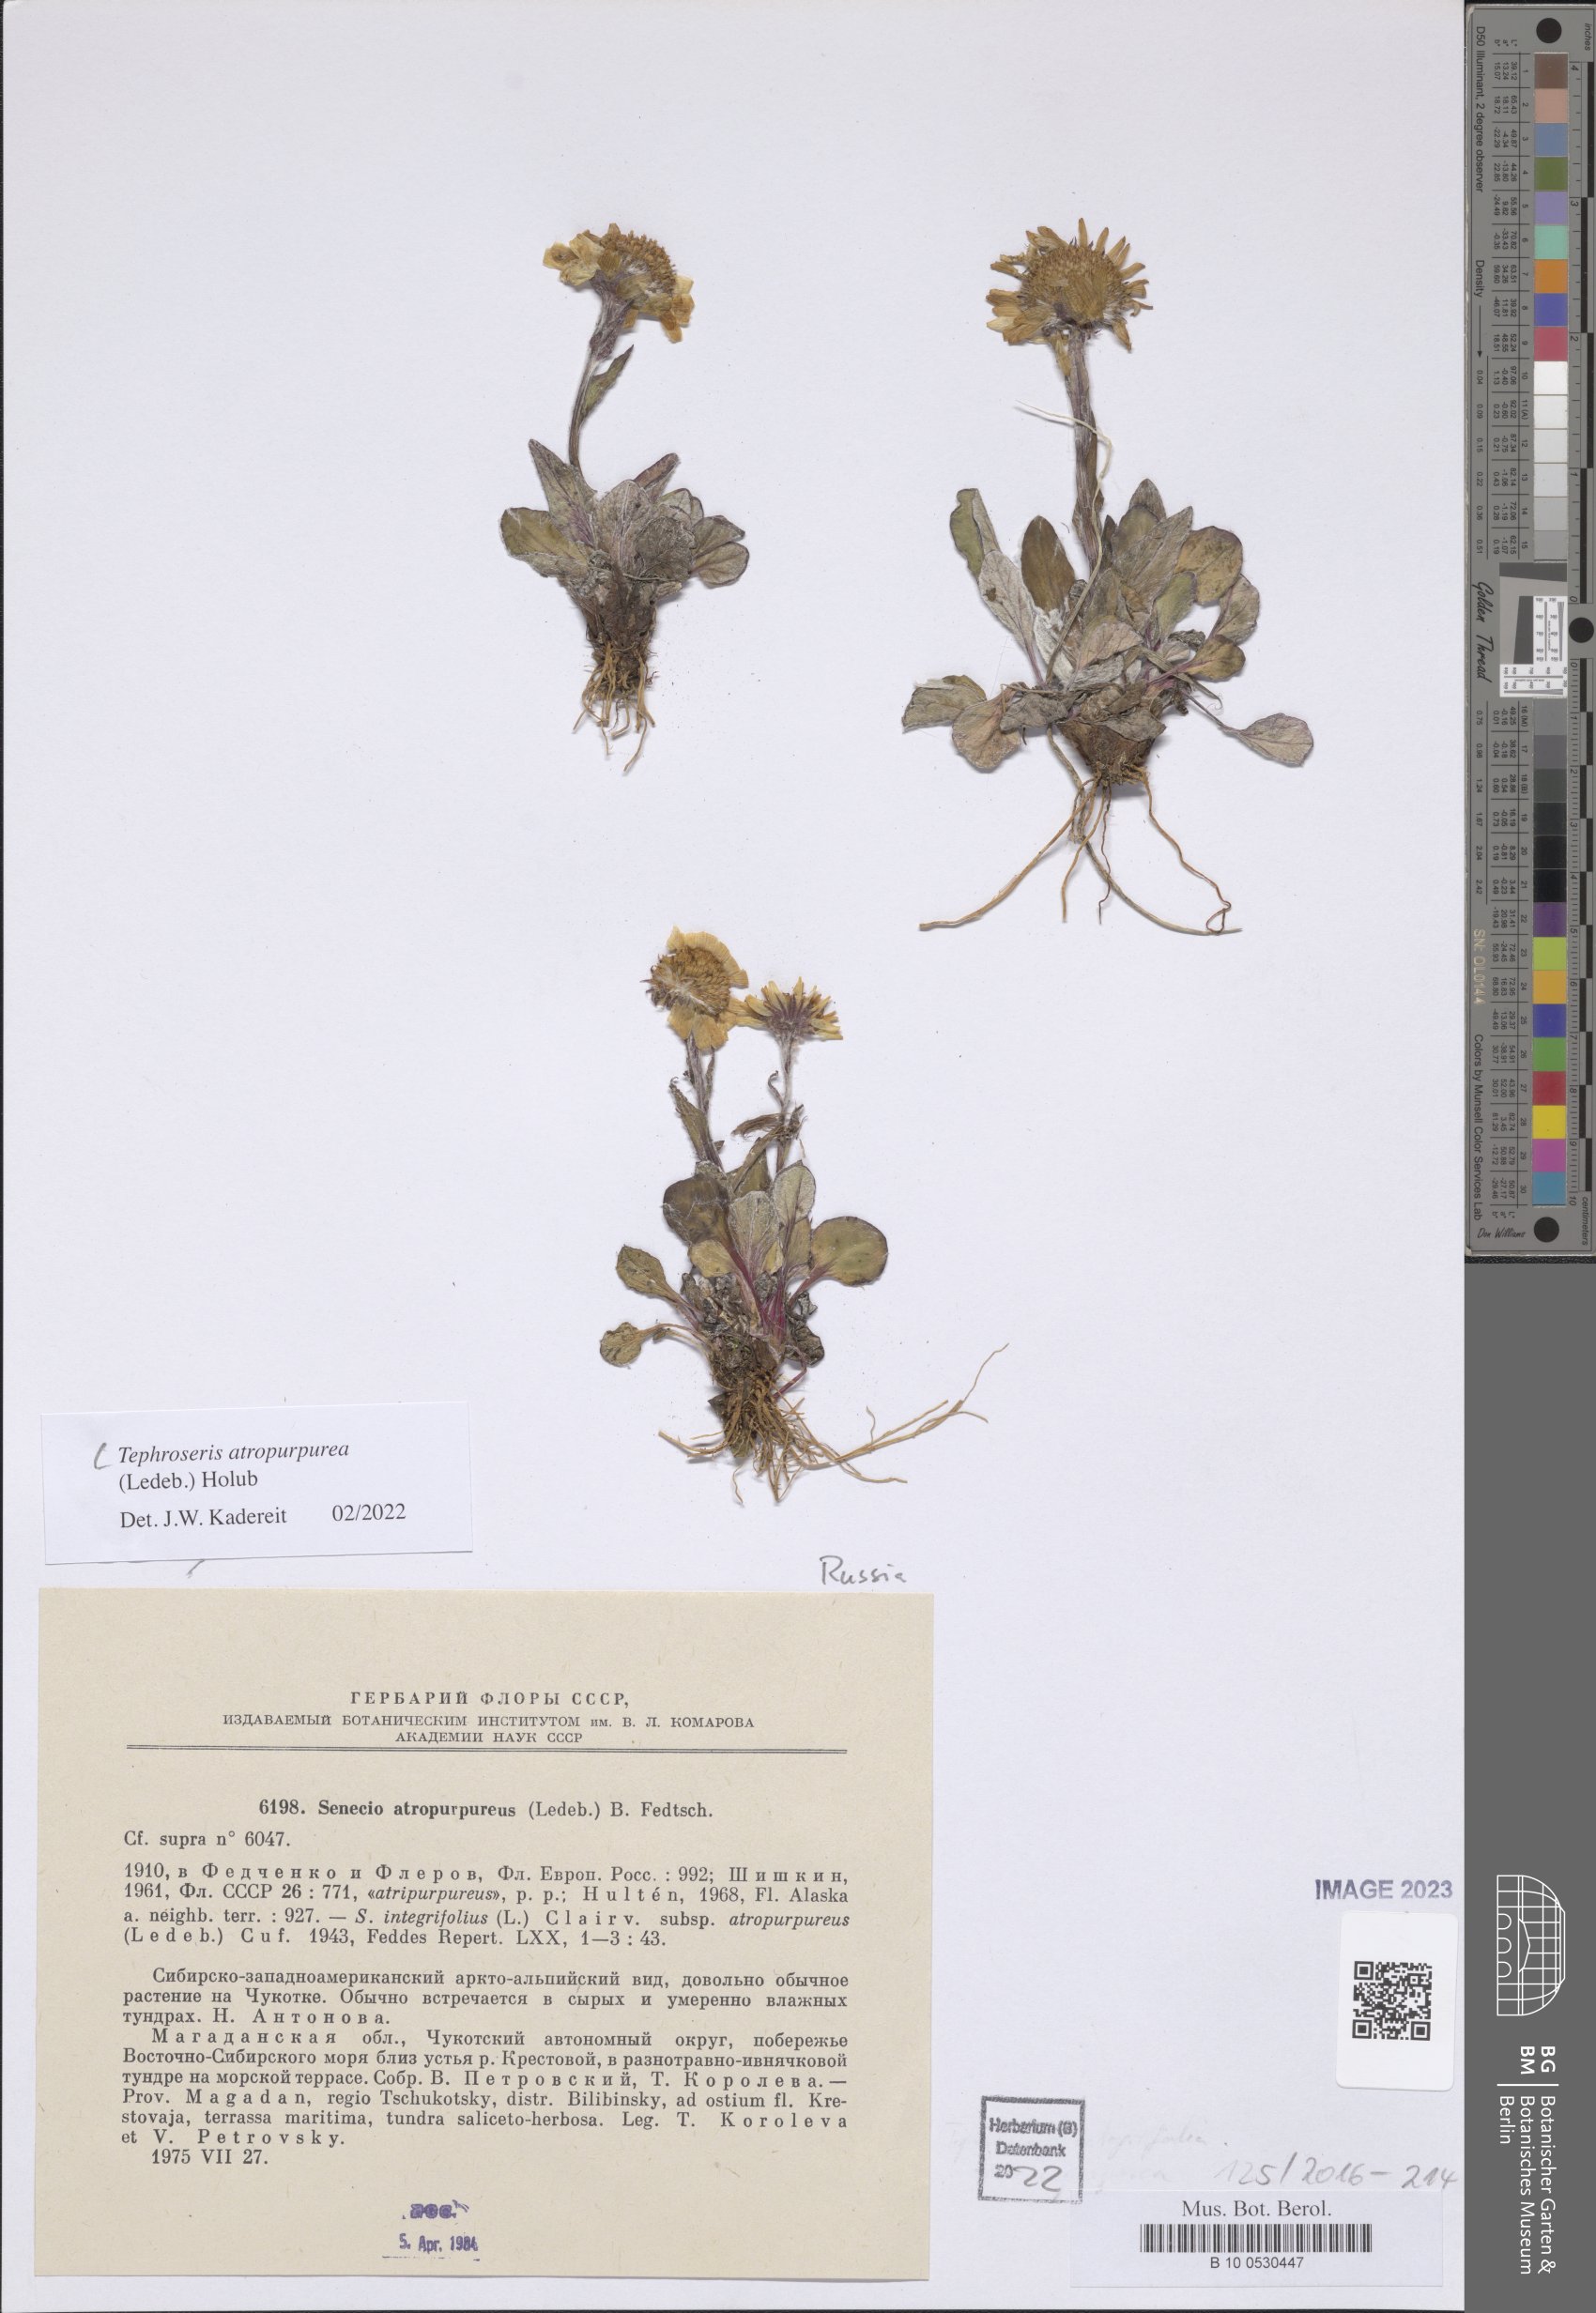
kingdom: Plantae
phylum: Tracheophyta
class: Magnoliopsida
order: Asterales
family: Asteraceae
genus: Tephroseris
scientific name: Tephroseris integrifolia
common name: Field fleawort
